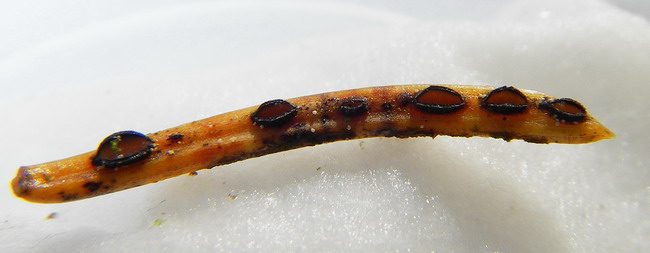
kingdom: Fungi
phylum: Ascomycota
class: Leotiomycetes
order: Rhytismatales
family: Rhytismataceae
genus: Lophodermium
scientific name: Lophodermium piceae
